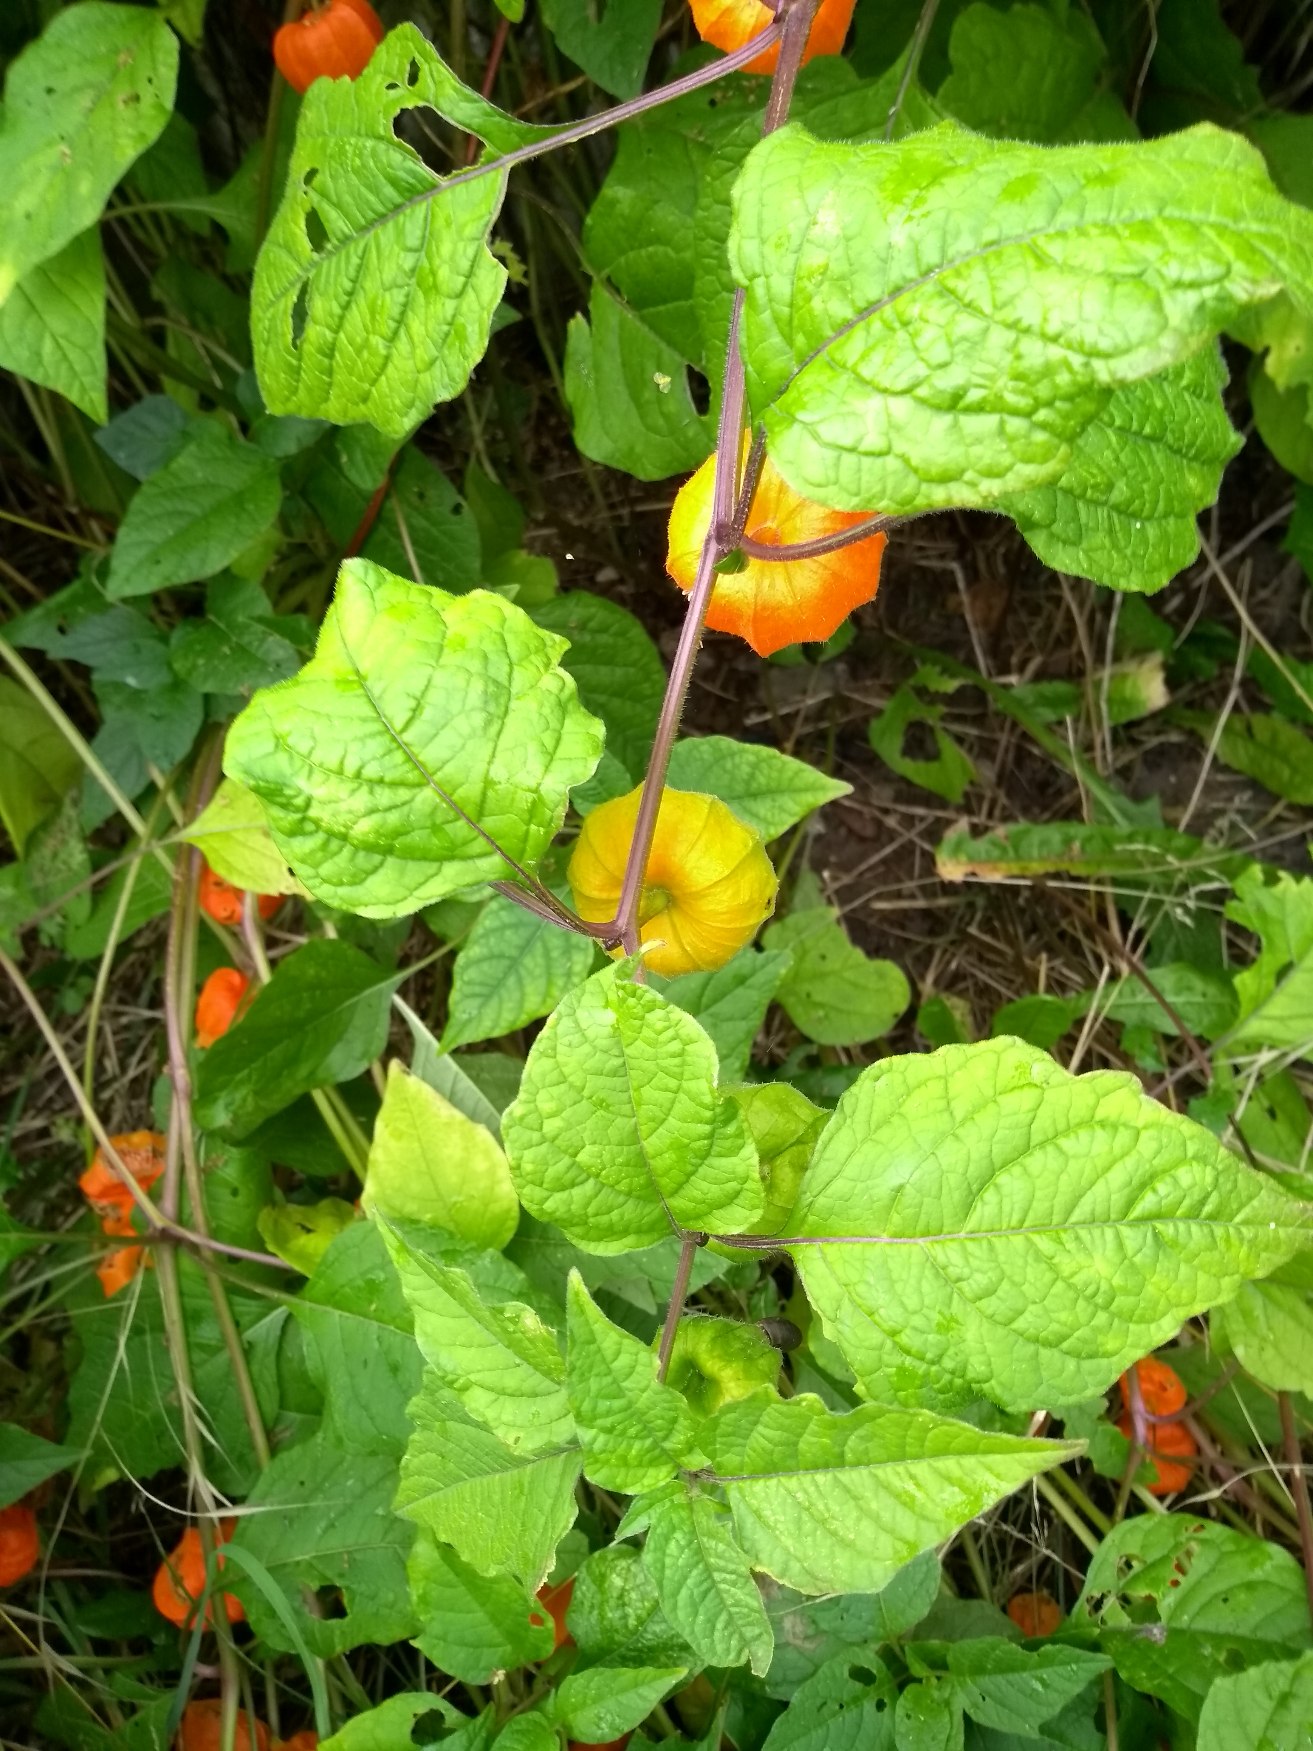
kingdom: Plantae
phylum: Tracheophyta
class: Magnoliopsida
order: Solanales
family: Solanaceae
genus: Alkekengi
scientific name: Alkekengi officinarum
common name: Jødekirsebær
